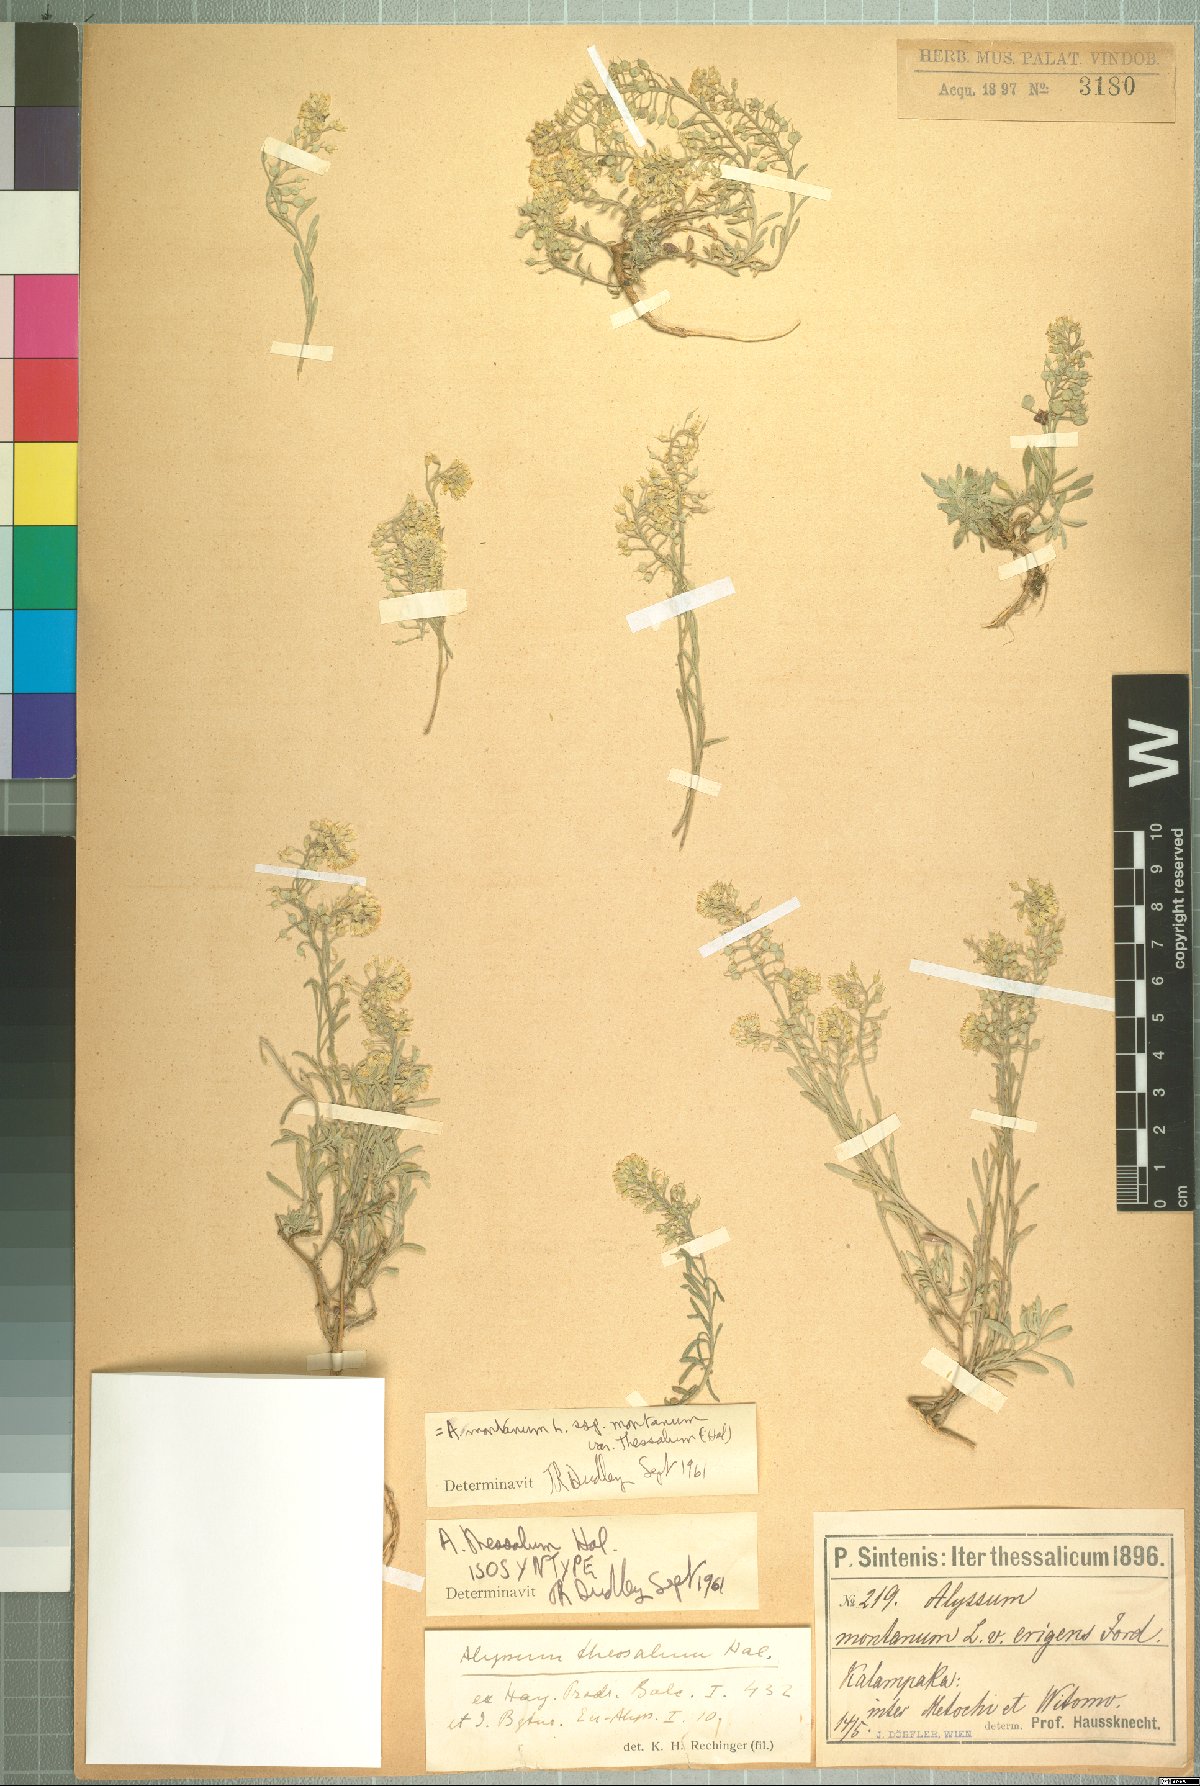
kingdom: Plantae
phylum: Tracheophyta
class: Magnoliopsida
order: Brassicales
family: Brassicaceae
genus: Alyssum
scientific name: Alyssum montanum
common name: Mountain alison
